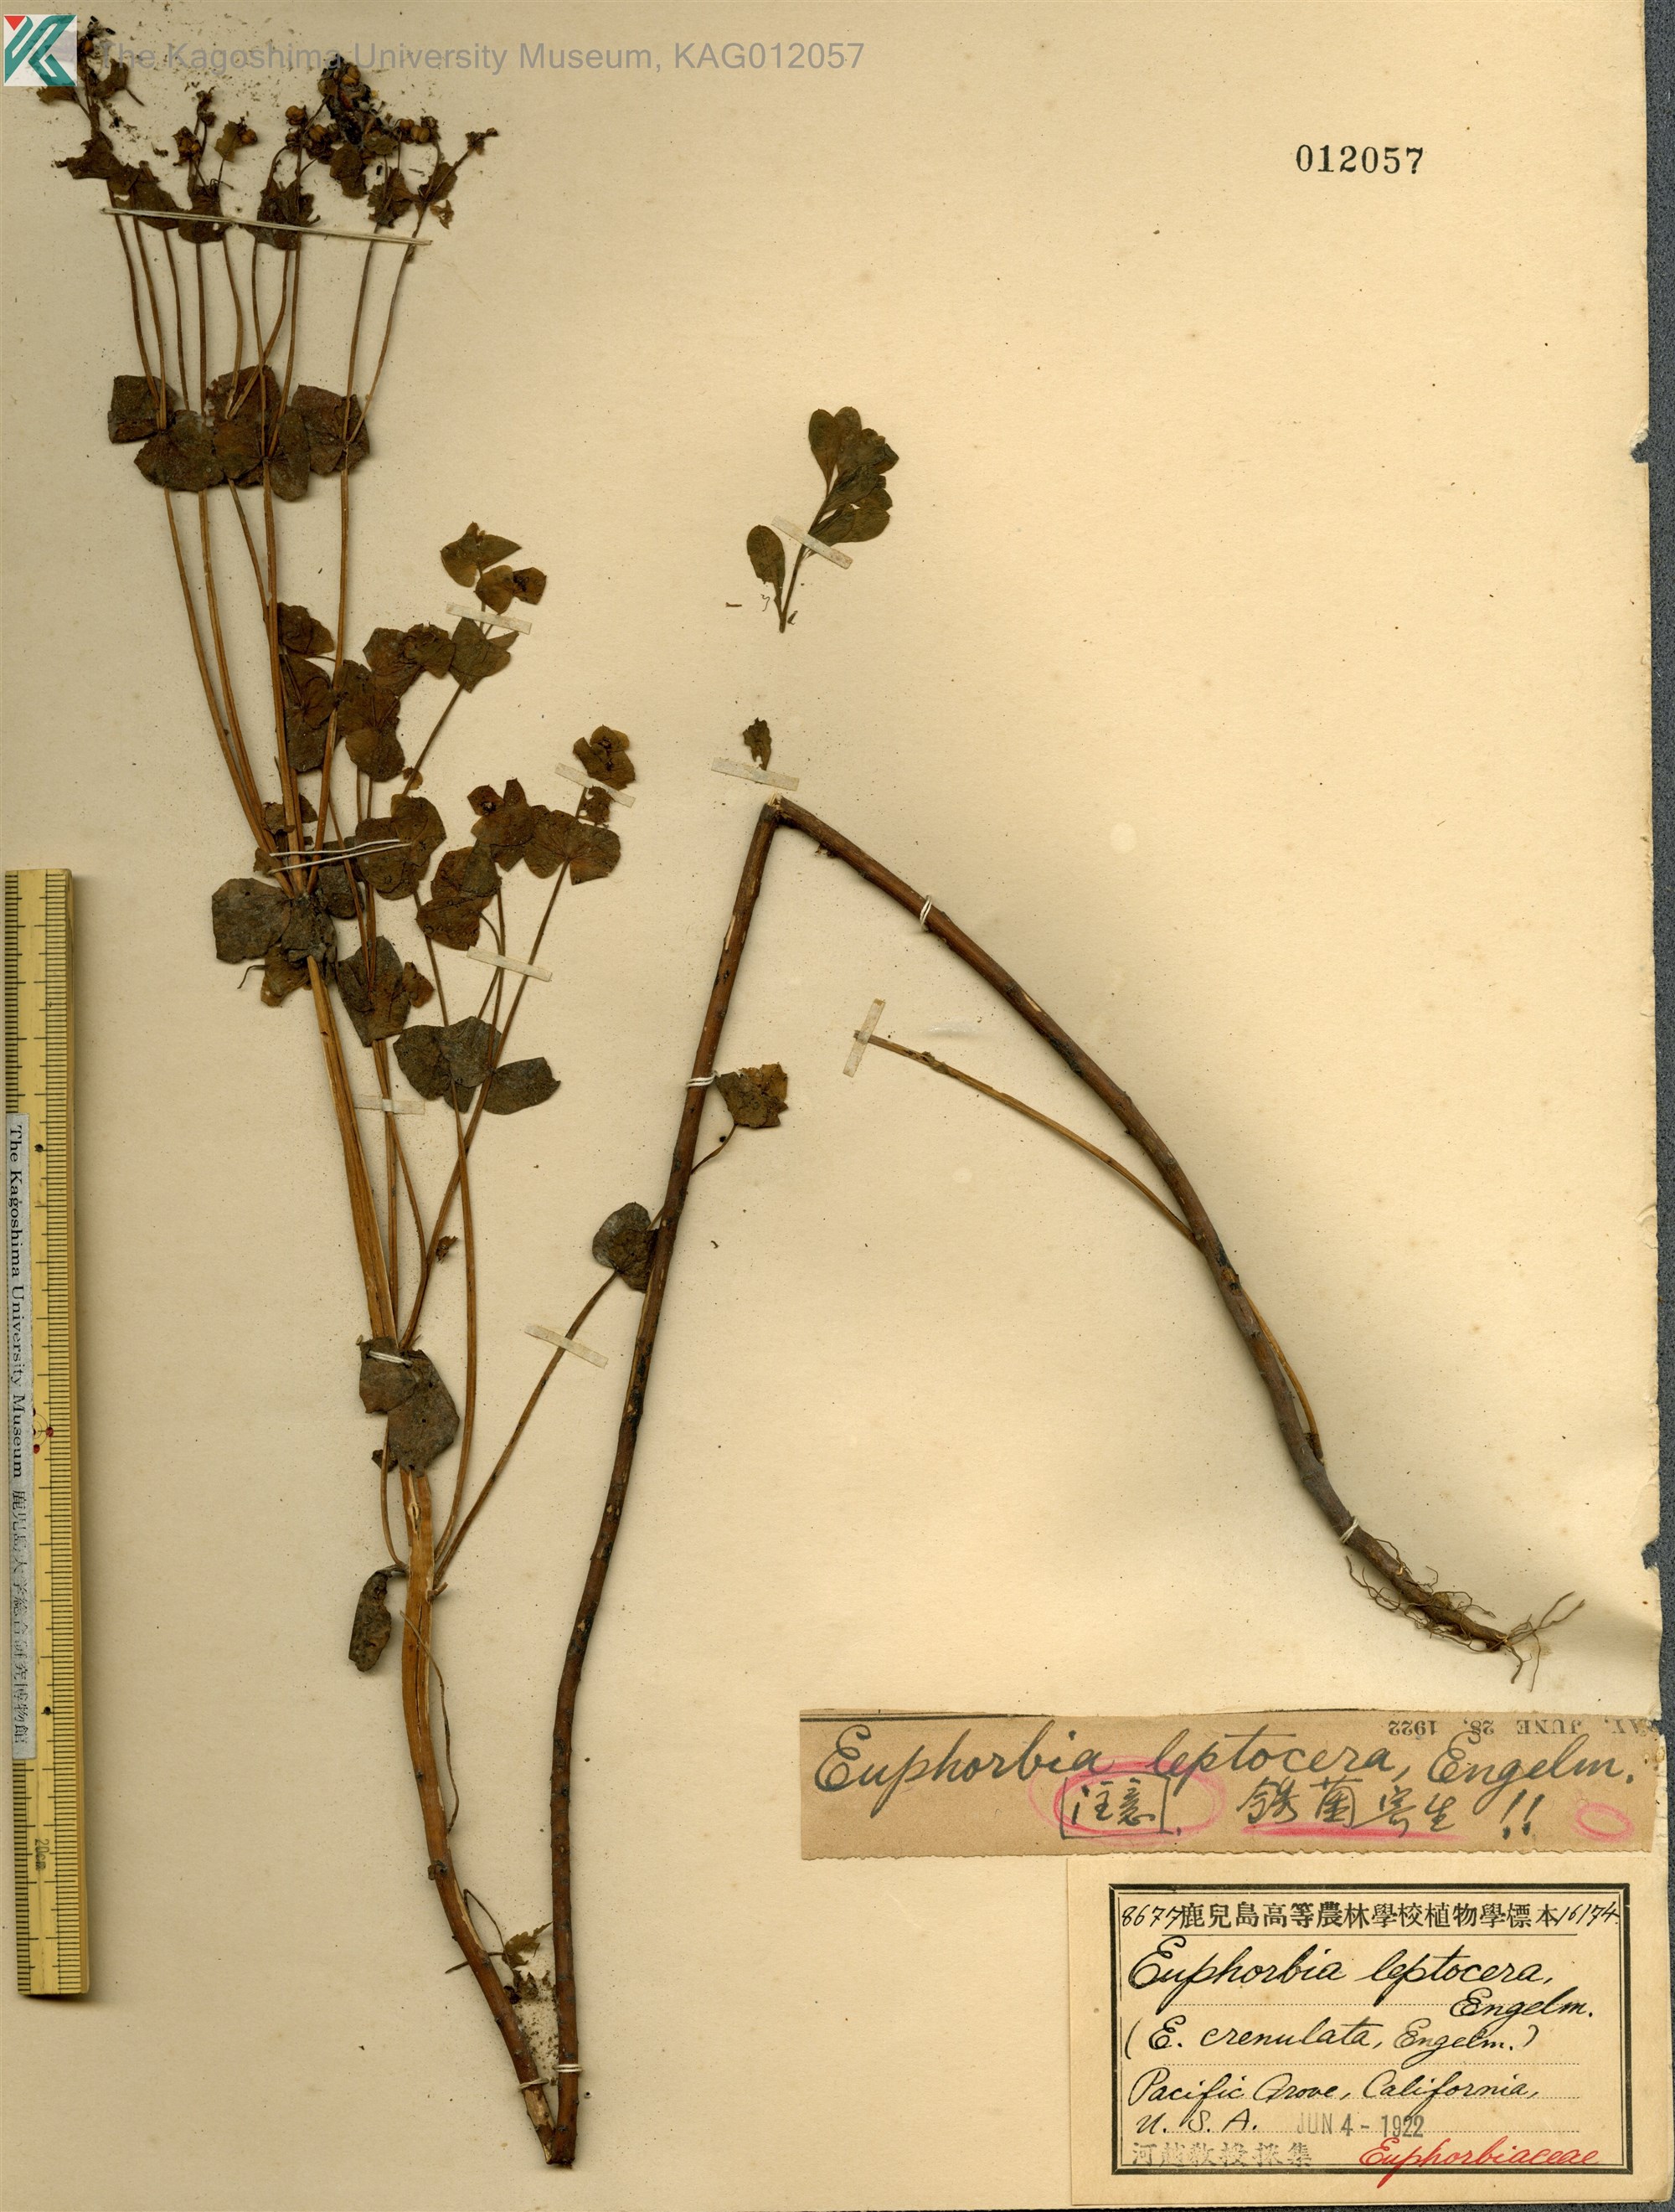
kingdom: Plantae
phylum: Tracheophyta
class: Magnoliopsida
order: Malpighiales
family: Euphorbiaceae
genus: Euphorbia
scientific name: Euphorbia crenulata
